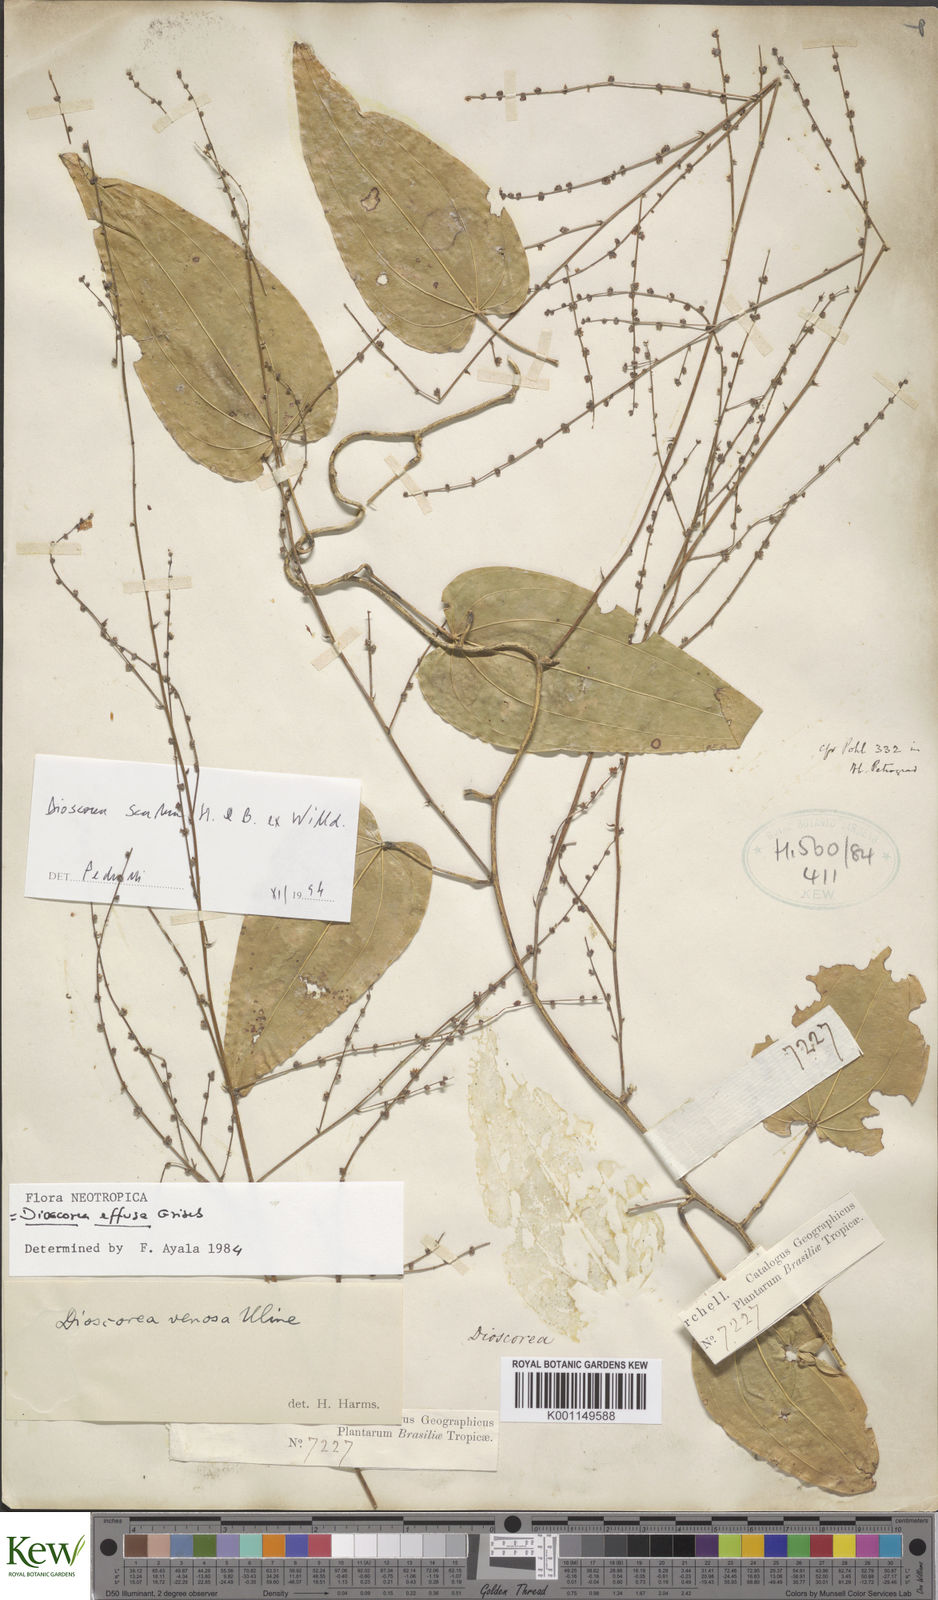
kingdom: Plantae
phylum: Tracheophyta
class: Liliopsida
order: Dioscoreales
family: Dioscoreaceae
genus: Dioscorea
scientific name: Dioscorea fodinarum
